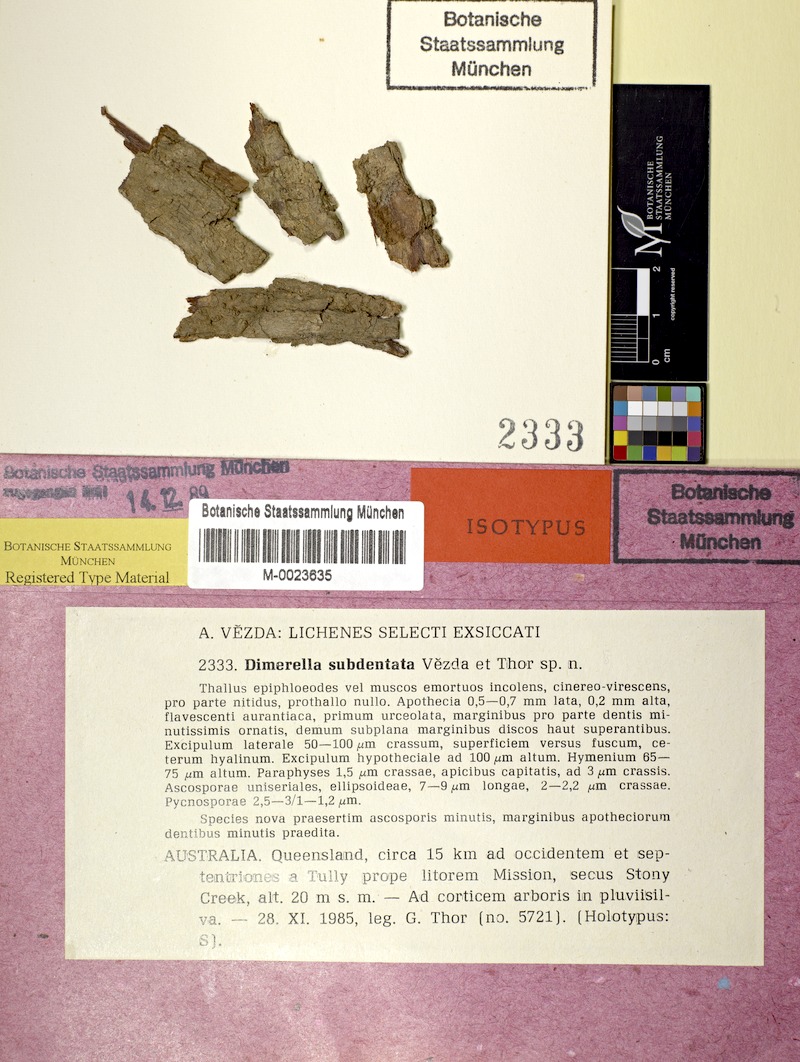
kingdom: Fungi
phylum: Ascomycota
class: Lecanoromycetes
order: Ostropales
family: Coenogoniaceae
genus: Coenogonium
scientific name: Coenogonium subdentatum
